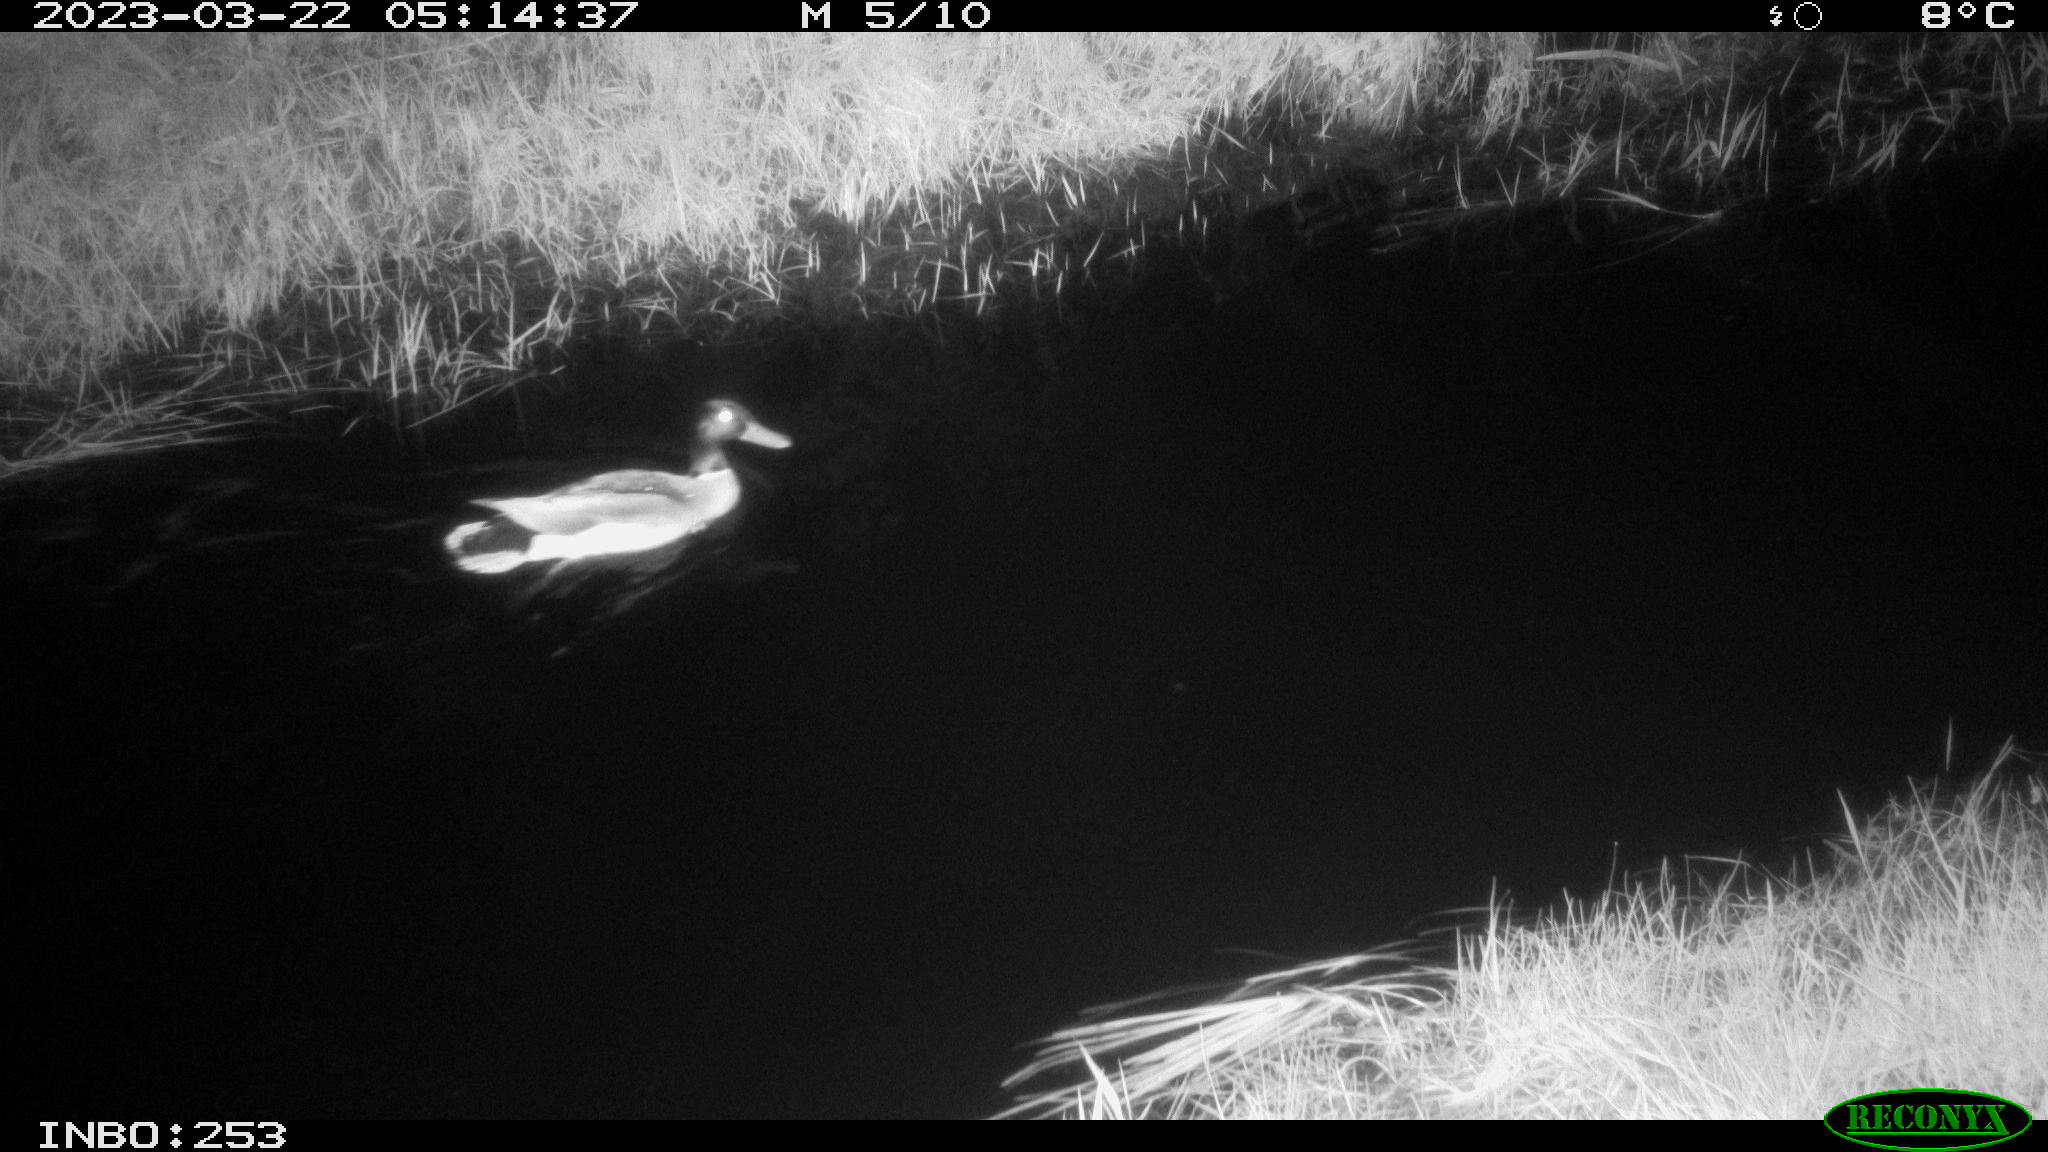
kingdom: Animalia
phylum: Chordata
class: Aves
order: Anseriformes
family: Anatidae
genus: Anas
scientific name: Anas
